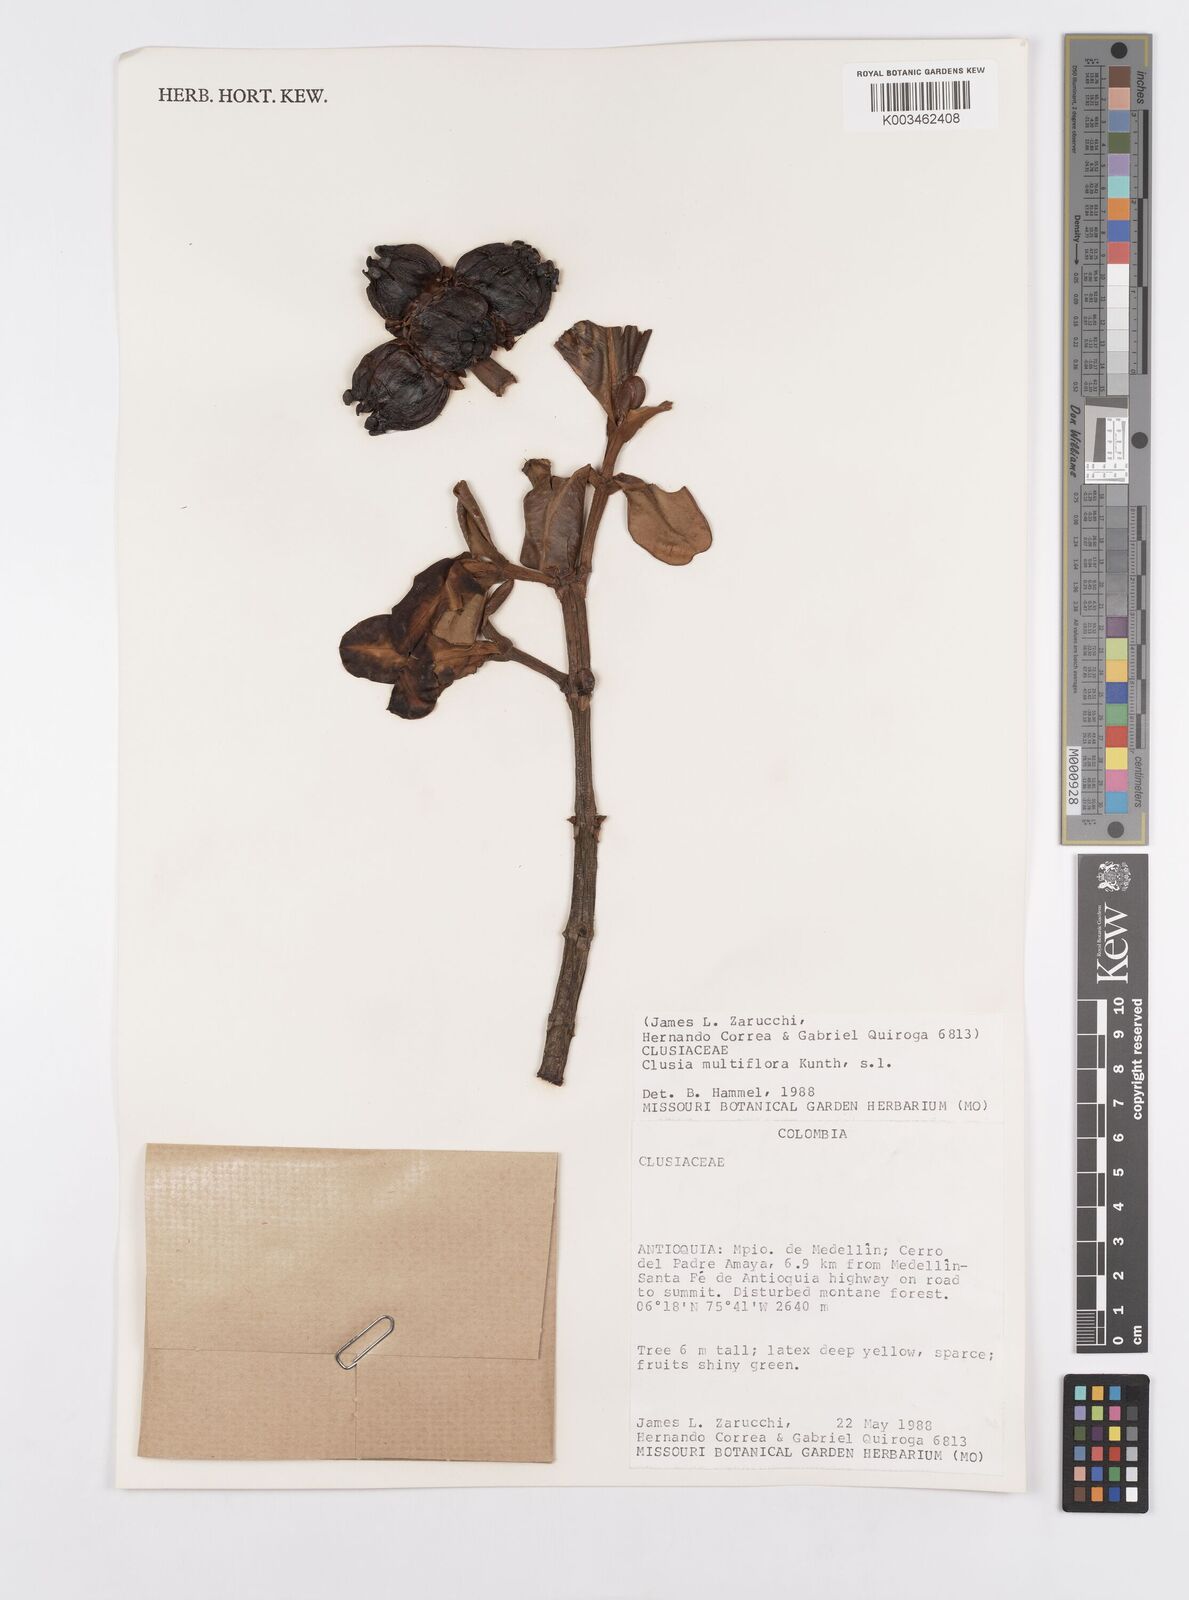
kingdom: Plantae
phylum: Tracheophyta
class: Magnoliopsida
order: Malpighiales
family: Clusiaceae
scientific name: Clusiaceae
